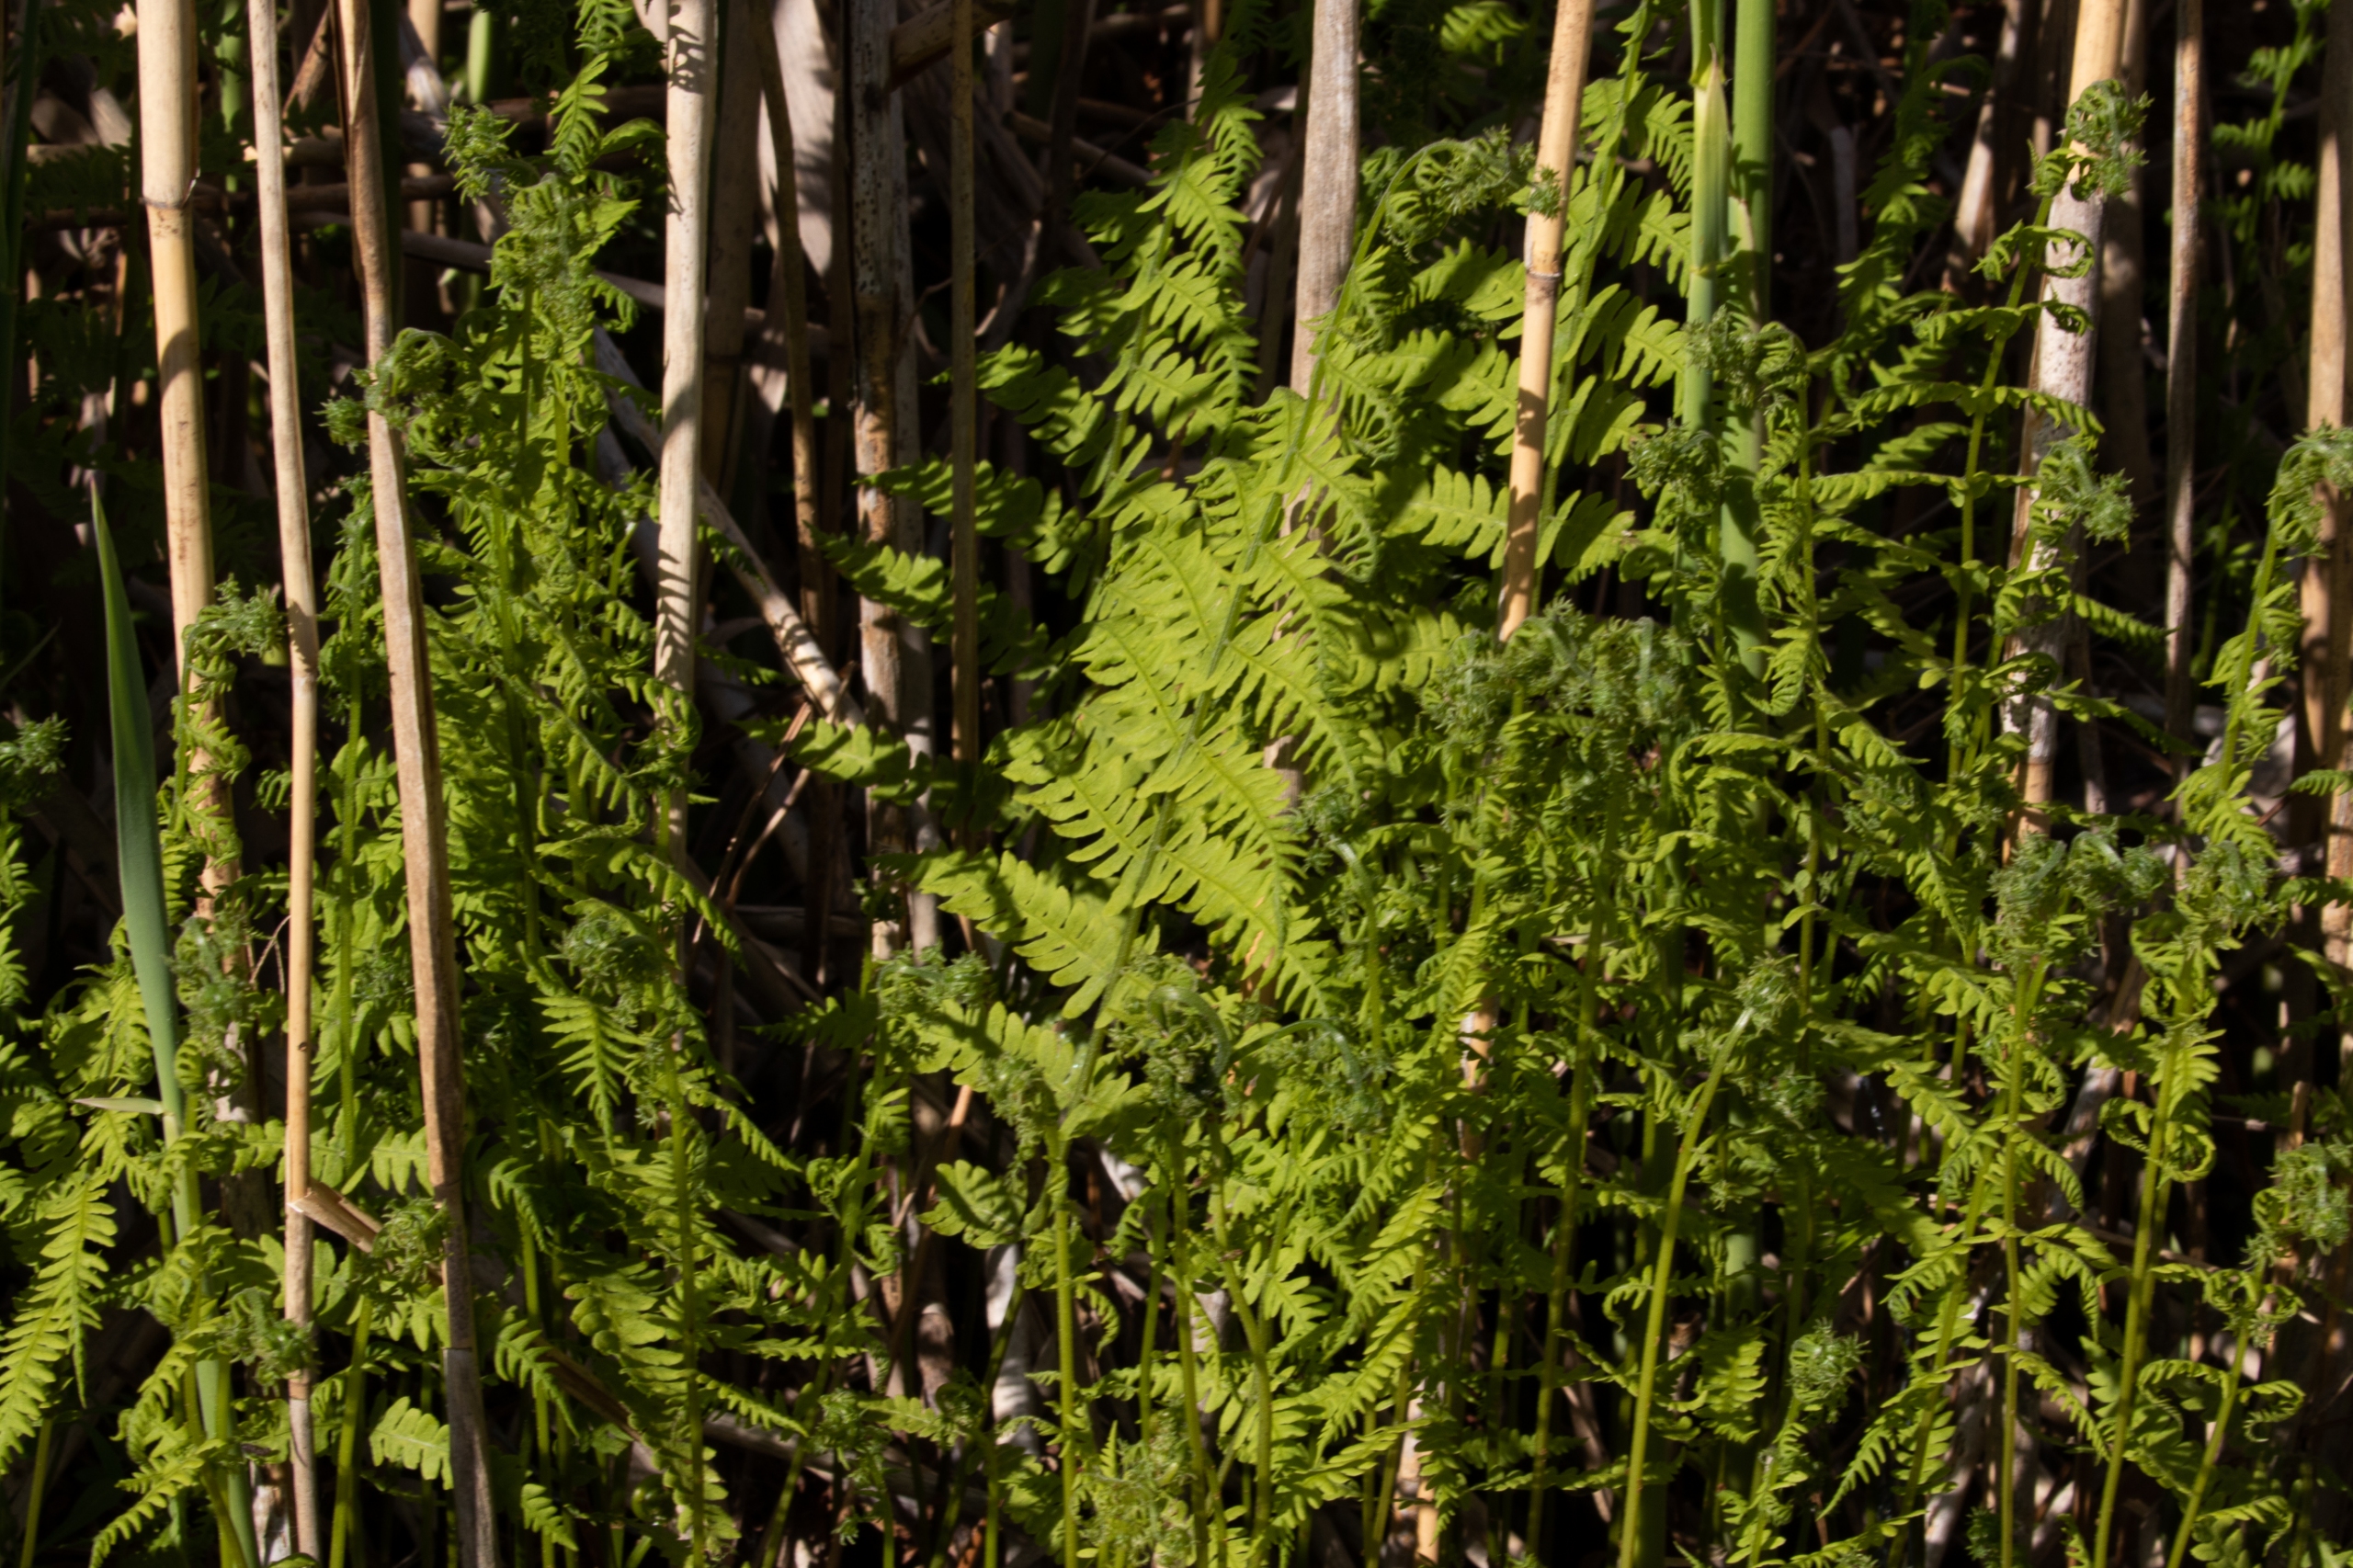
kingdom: Plantae
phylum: Tracheophyta
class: Polypodiopsida
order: Polypodiales
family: Thelypteridaceae
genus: Thelypteris
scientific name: Thelypteris palustris
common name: Kærmangeløv
